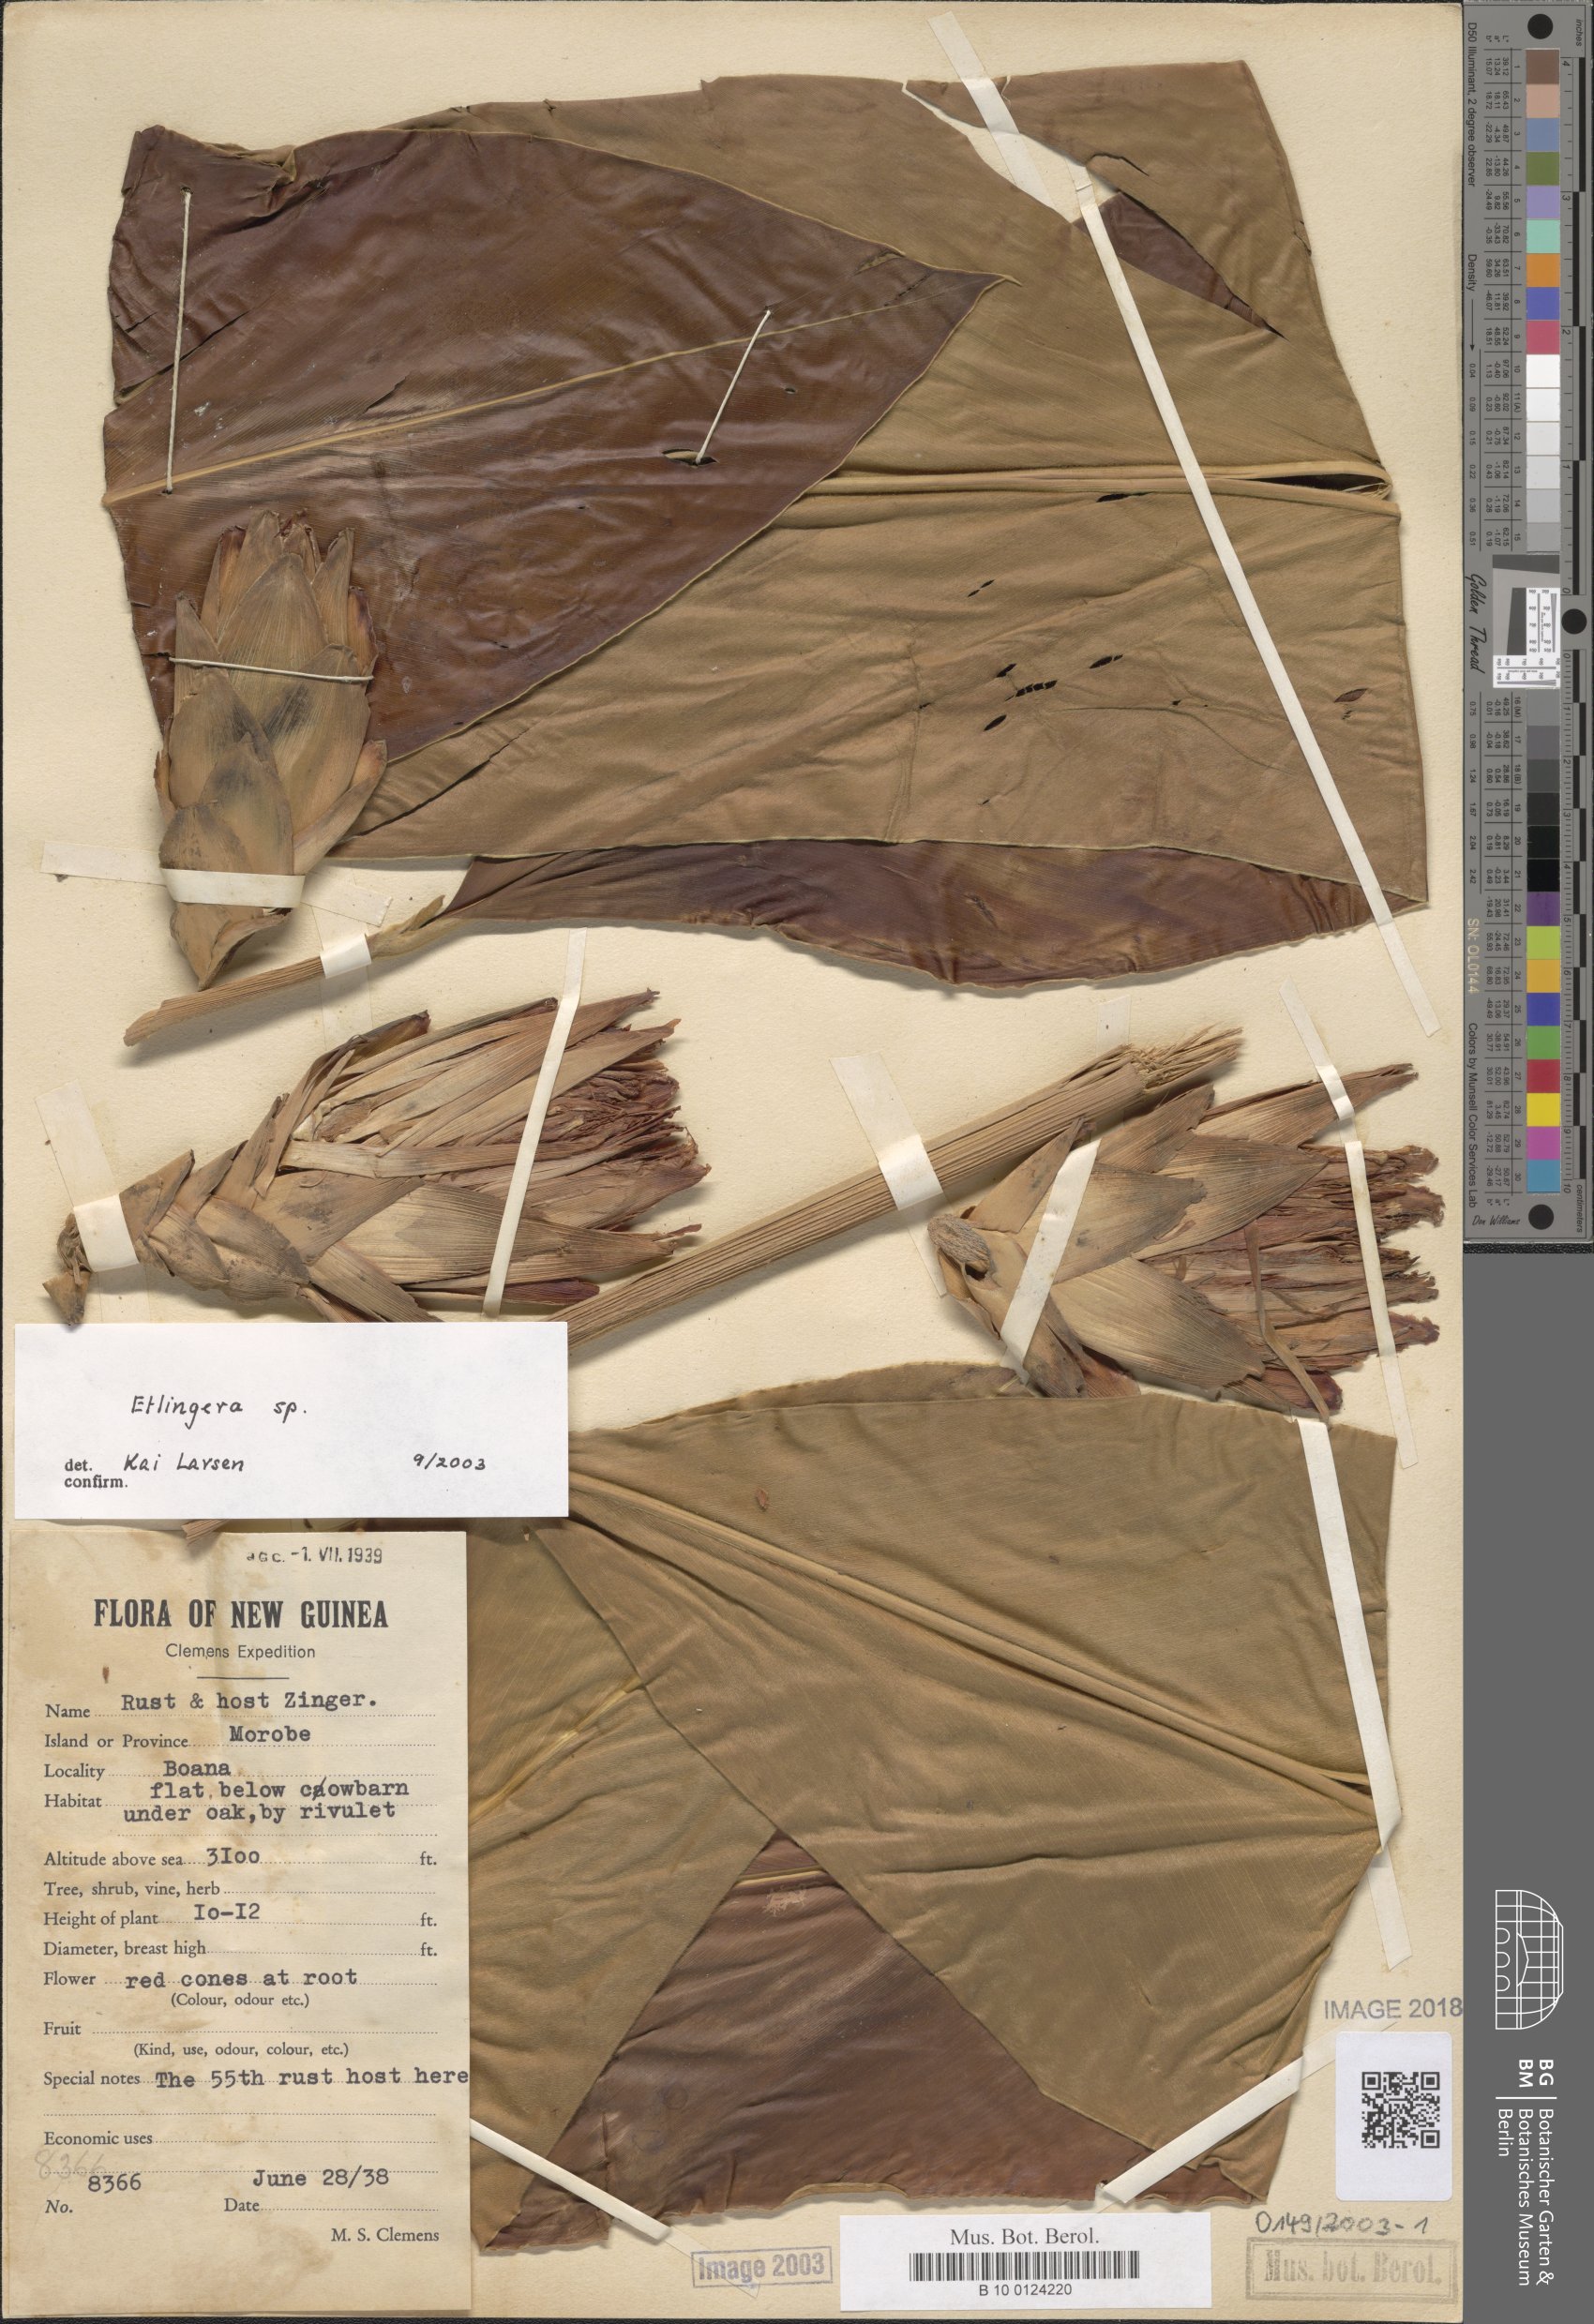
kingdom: Plantae
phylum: Tracheophyta
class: Liliopsida
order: Zingiberales
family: Zingiberaceae
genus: Etlingera
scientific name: Etlingera
